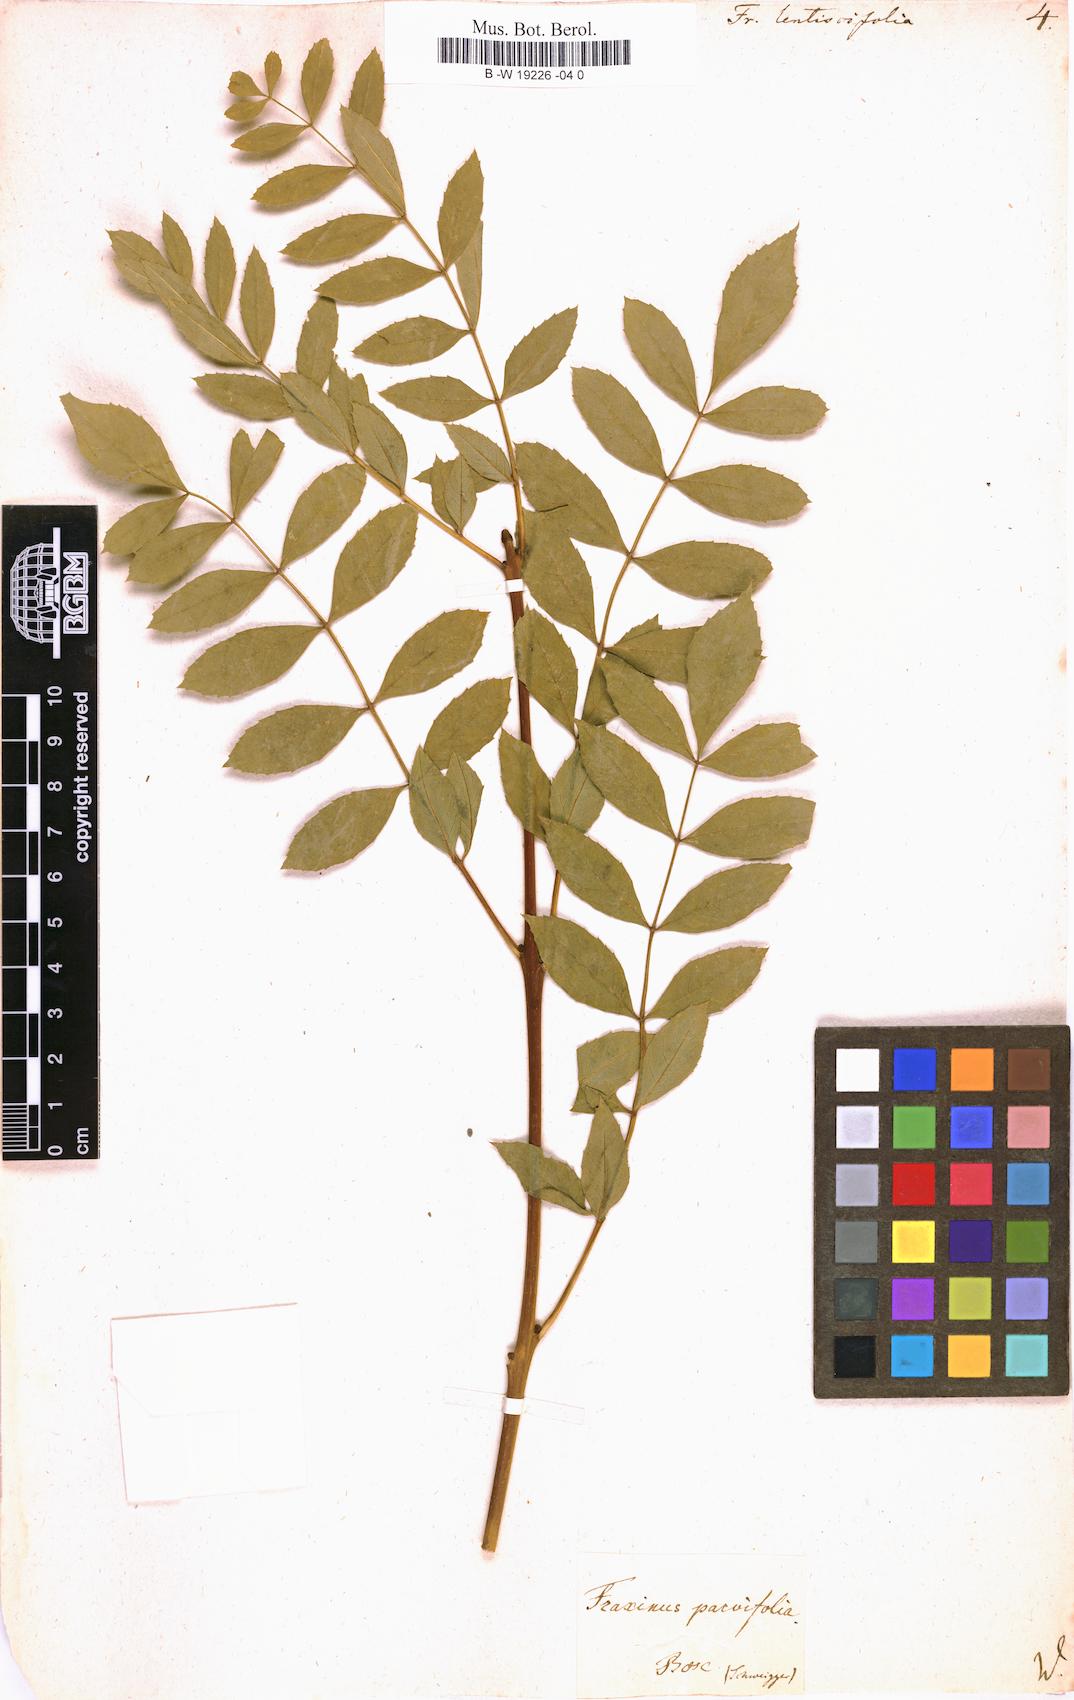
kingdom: Plantae
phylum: Tracheophyta
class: Magnoliopsida
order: Lamiales
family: Oleaceae
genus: Fraxinus
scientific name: Fraxinus angustifolia
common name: Narrow-leafed ash
